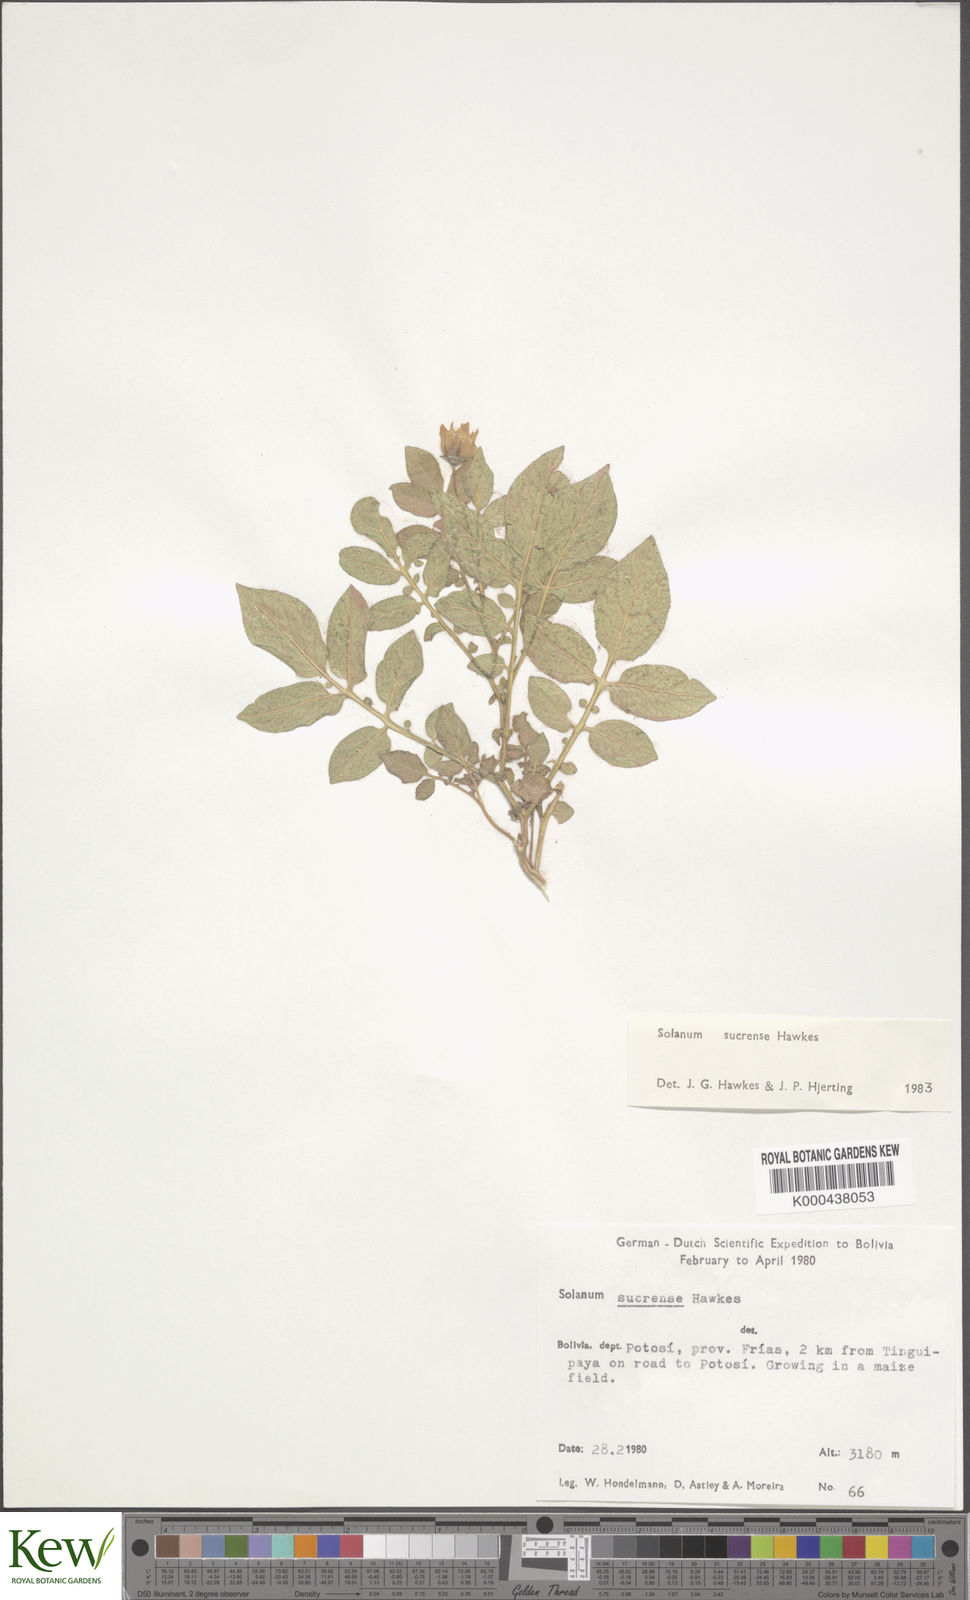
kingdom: Plantae
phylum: Tracheophyta
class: Magnoliopsida
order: Solanales
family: Solanaceae
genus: Solanum
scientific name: Solanum brevicaule
